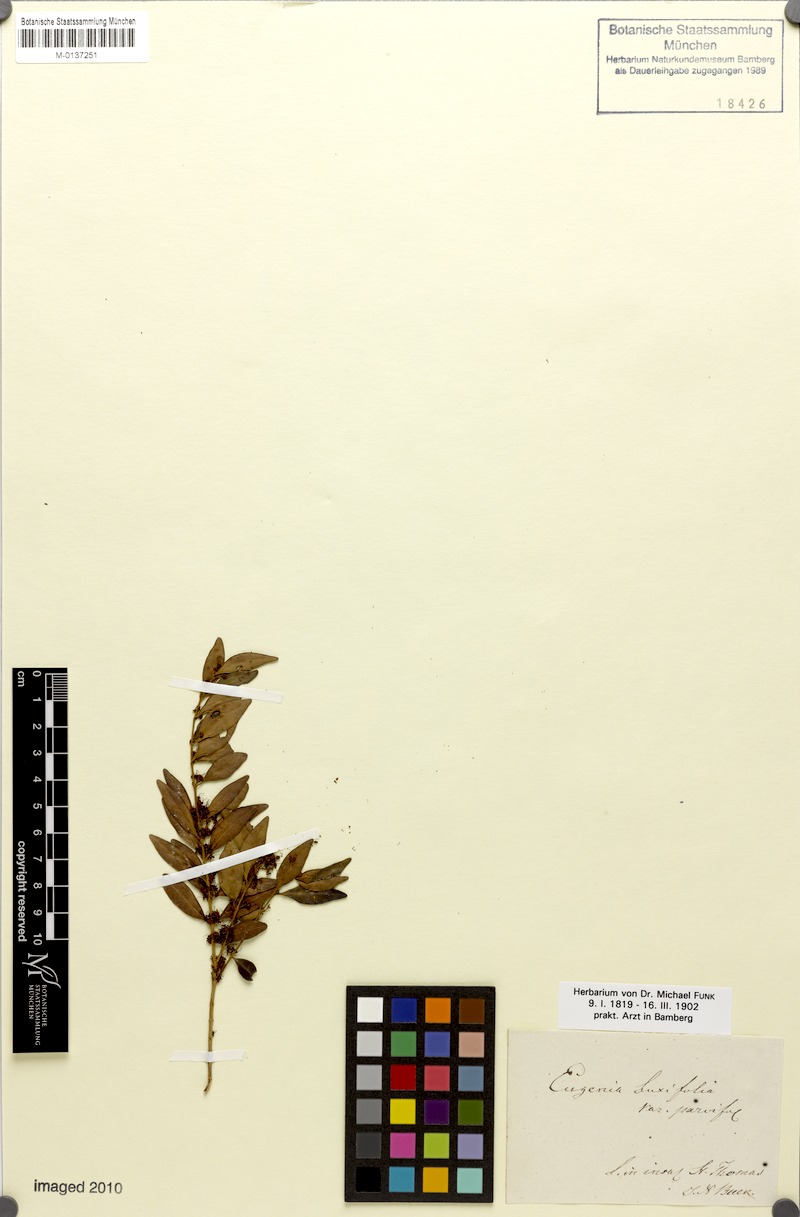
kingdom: Plantae
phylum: Tracheophyta
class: Magnoliopsida
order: Myrtales
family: Myrtaceae
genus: Eugenia
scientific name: Eugenia foetida
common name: White wattling
